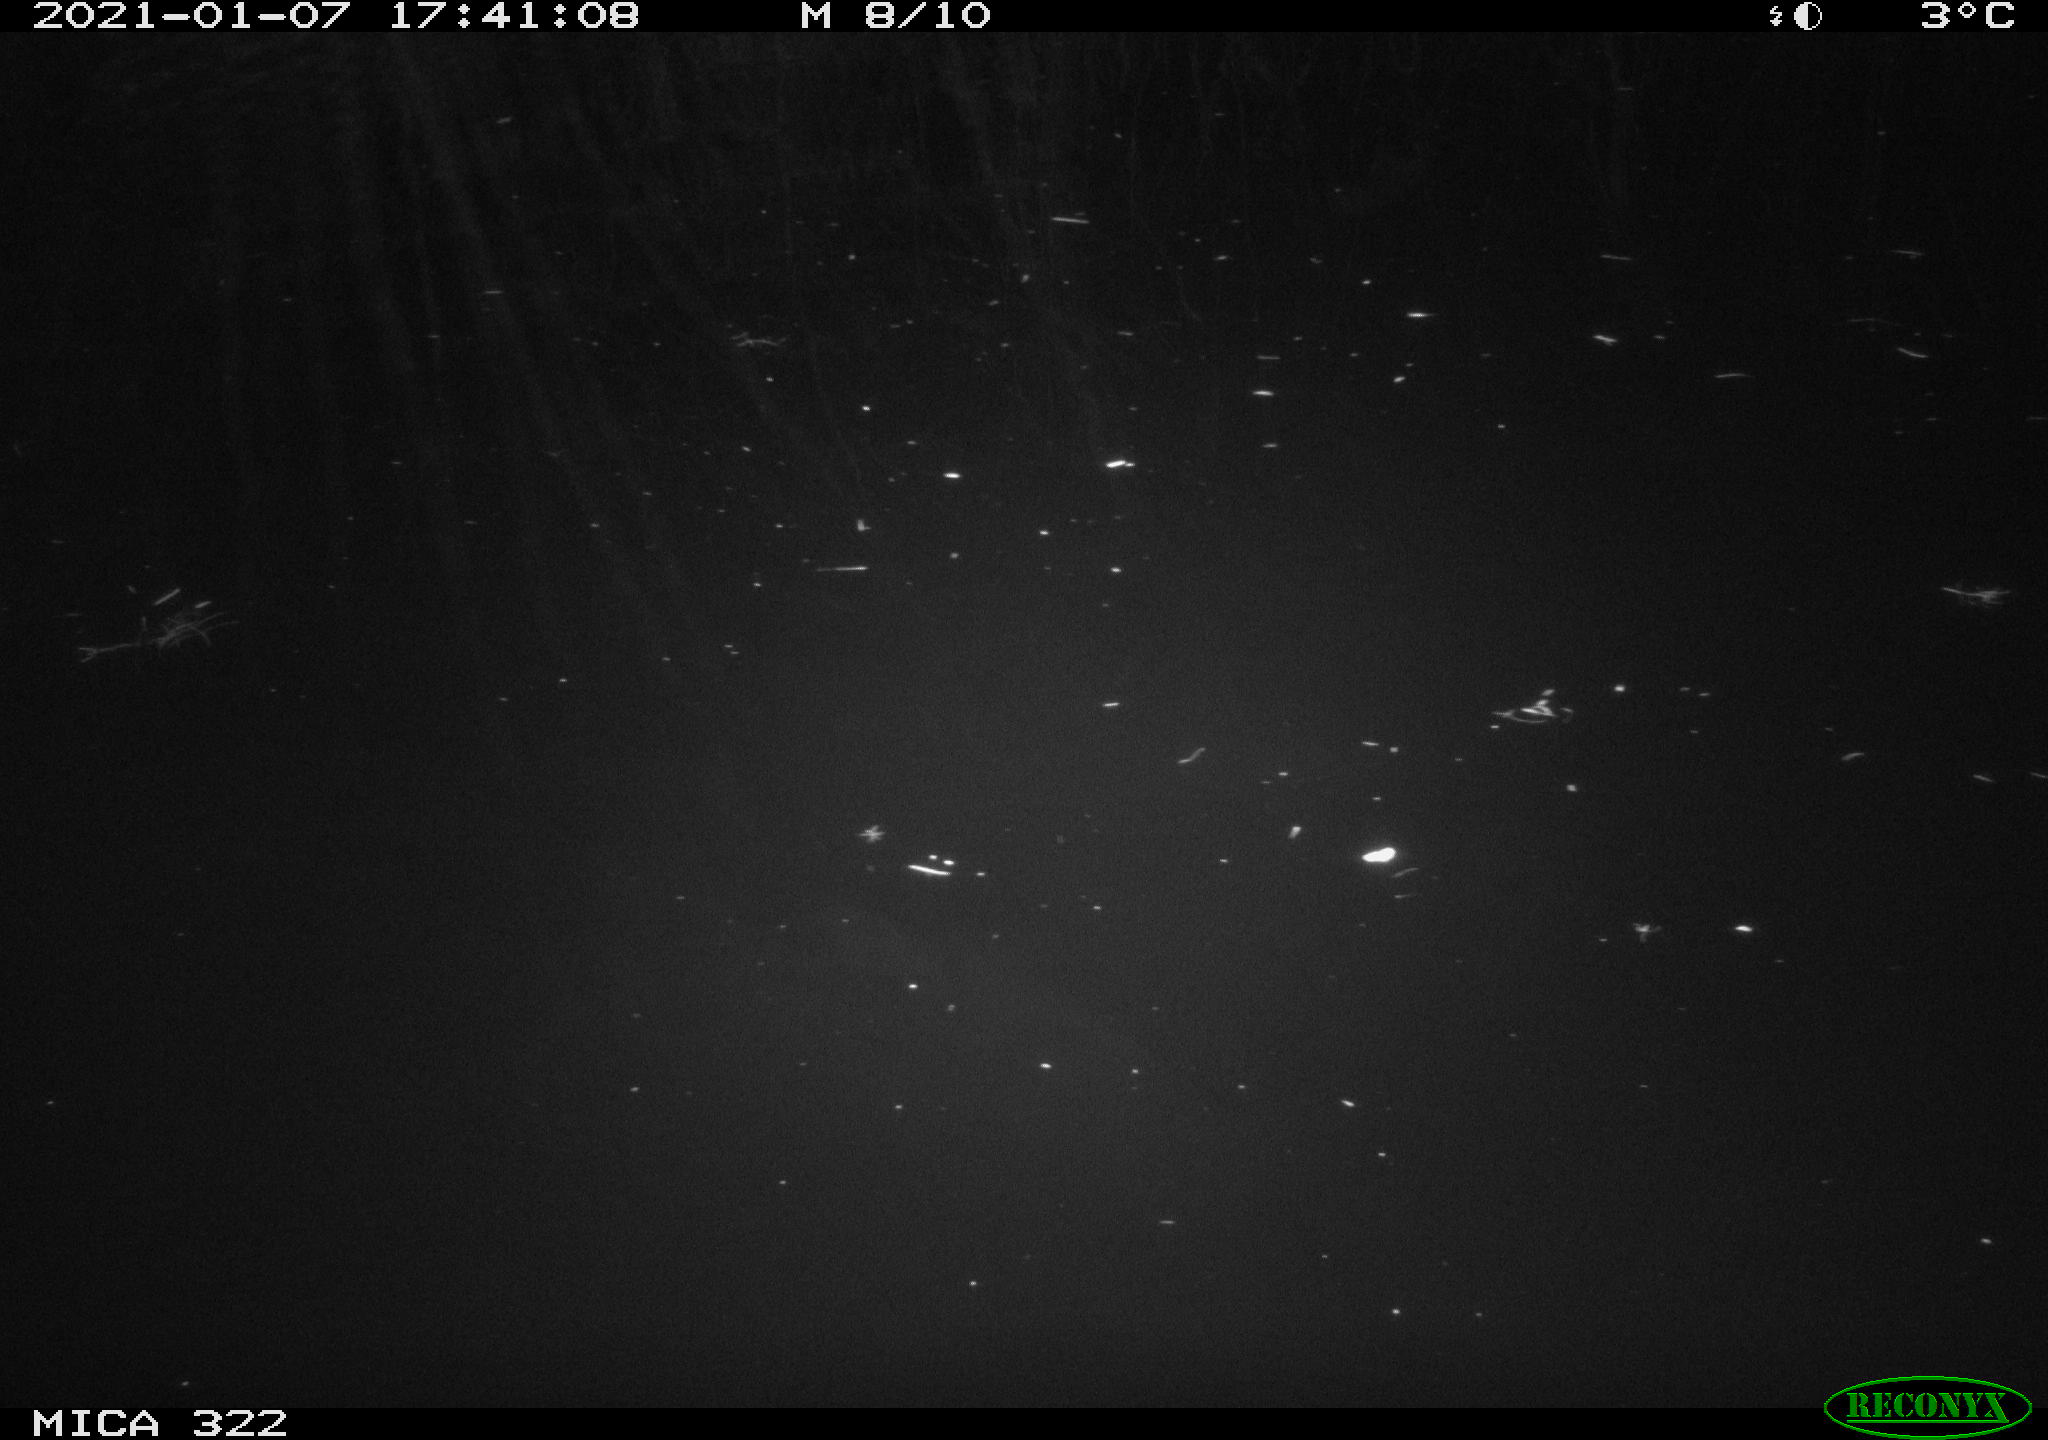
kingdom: Animalia
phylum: Chordata
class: Aves
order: Gruiformes
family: Rallidae
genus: Fulica
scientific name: Fulica atra
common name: Eurasian coot
